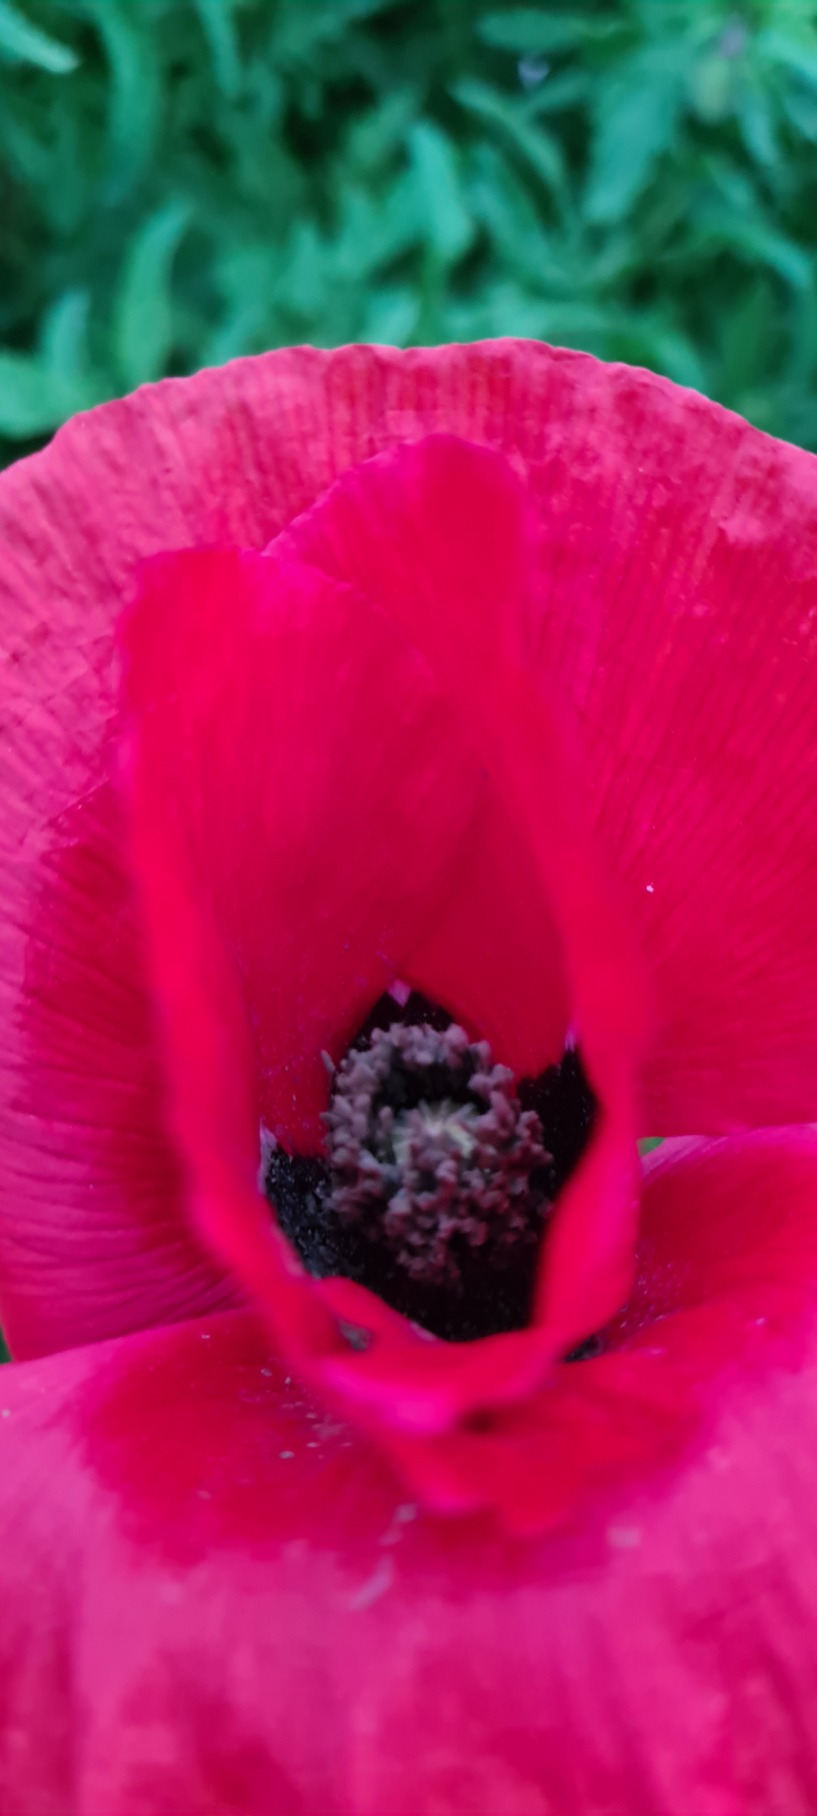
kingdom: Plantae
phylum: Tracheophyta
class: Magnoliopsida
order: Ranunculales
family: Papaveraceae
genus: Papaver
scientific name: Papaver
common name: Valmueslægten
